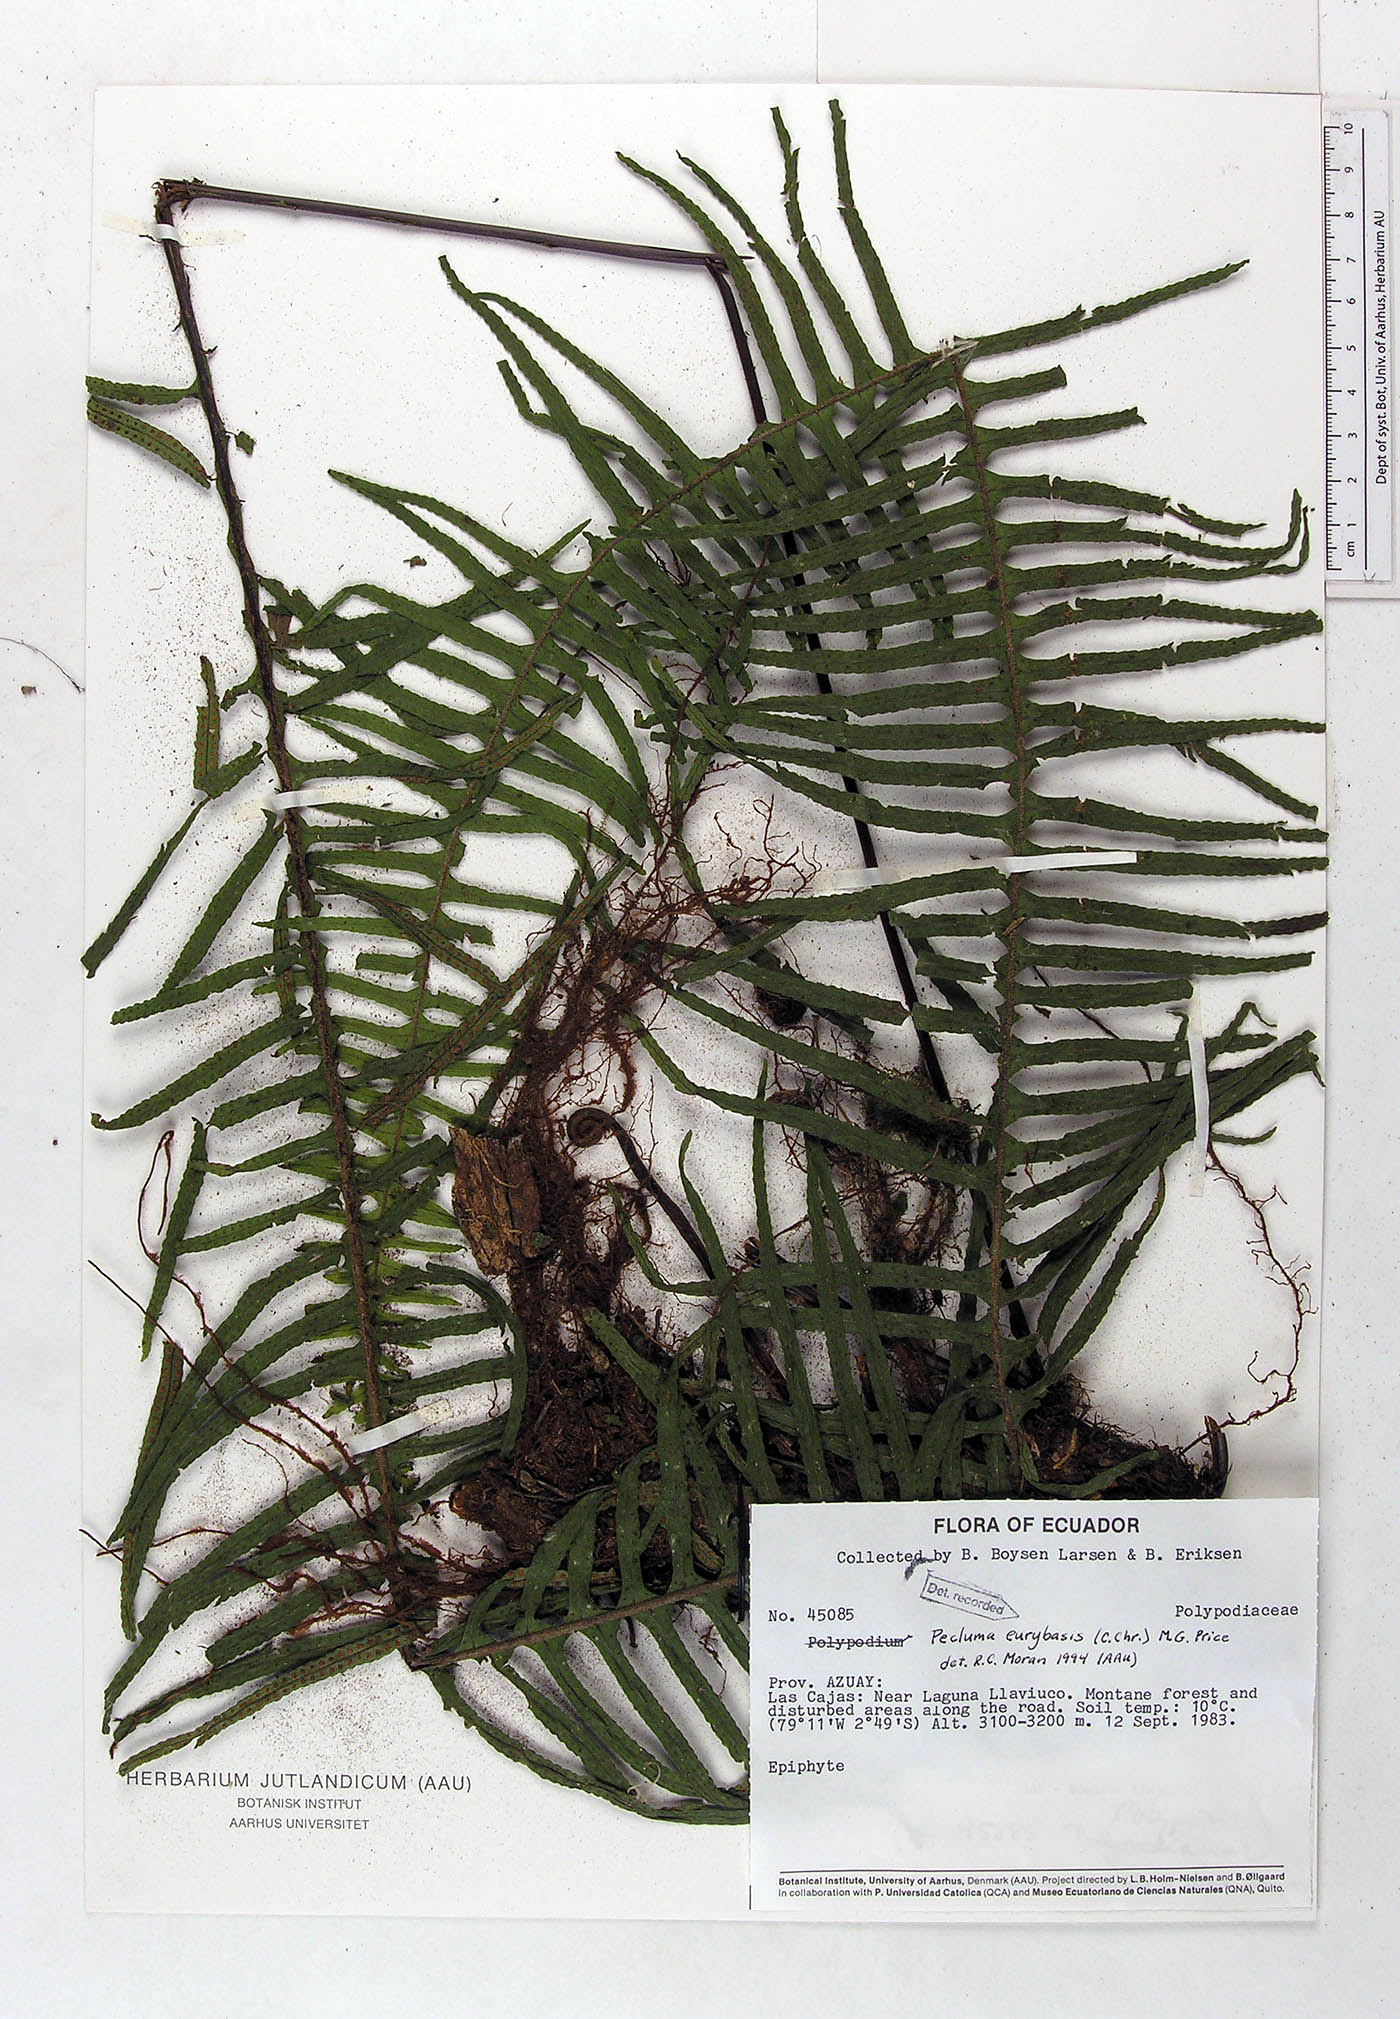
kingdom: Plantae
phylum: Tracheophyta
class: Polypodiopsida
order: Polypodiales
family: Polypodiaceae
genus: Pecluma
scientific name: Pecluma eurybasis
